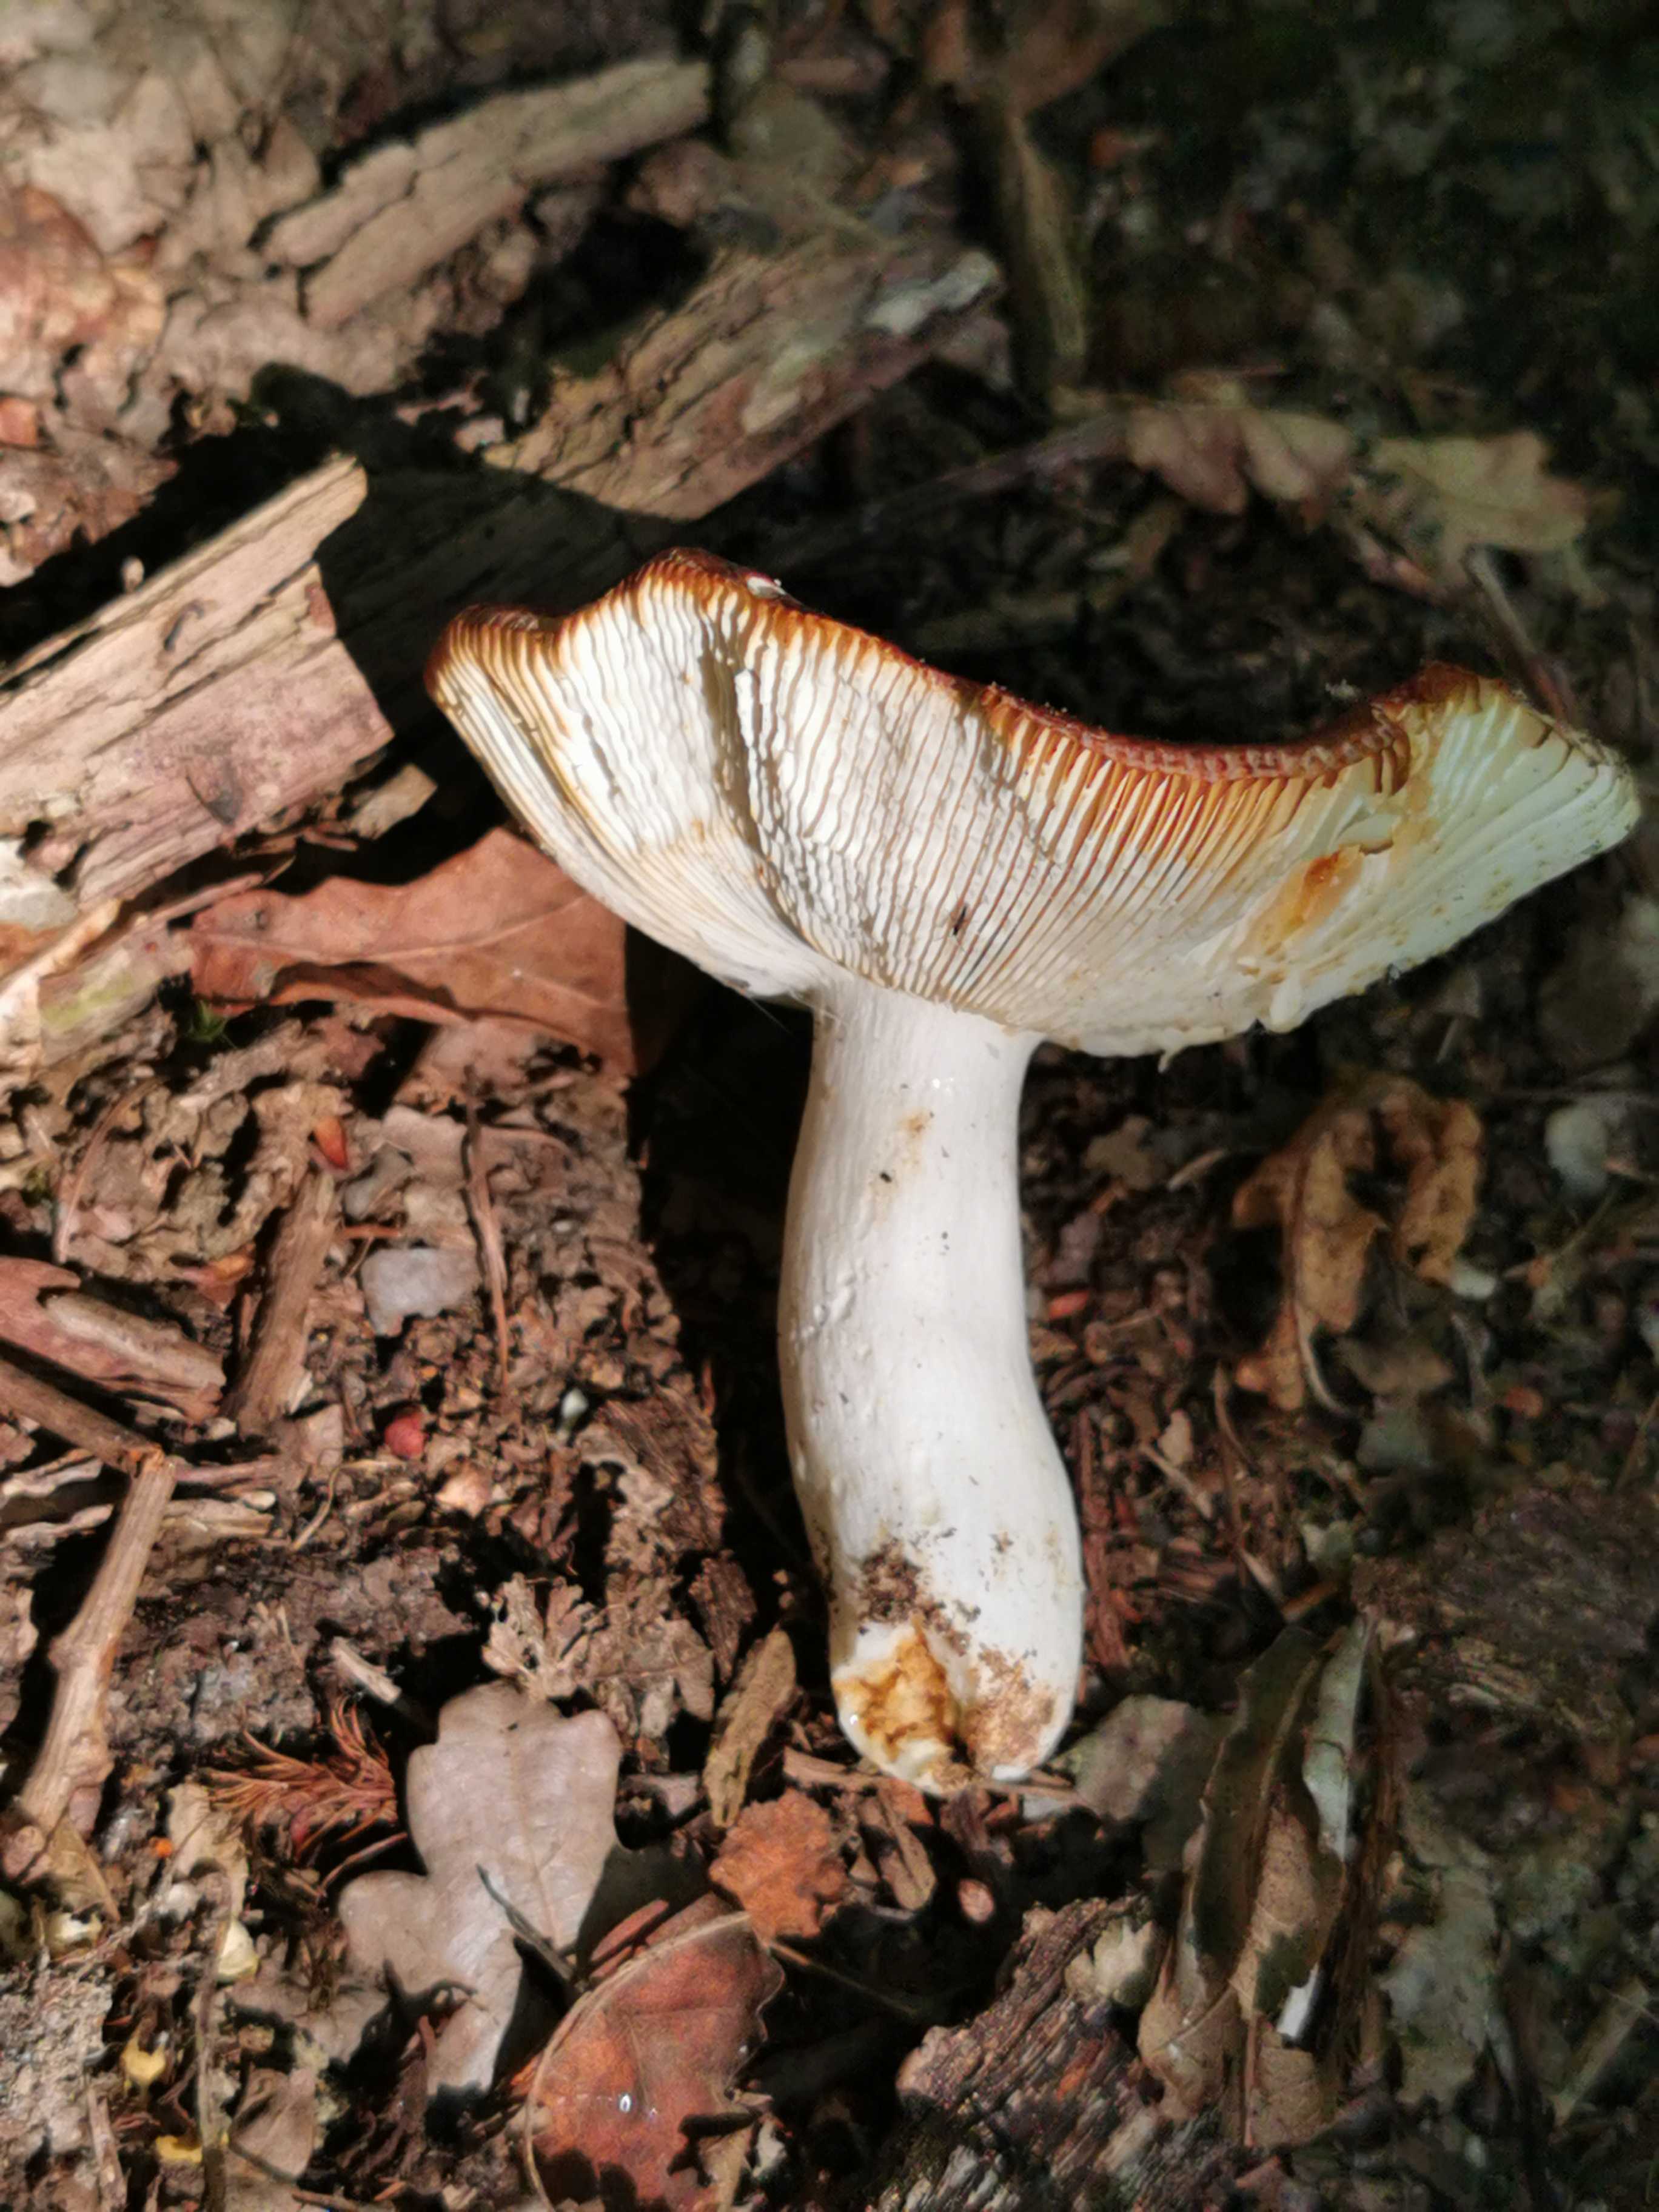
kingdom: Fungi
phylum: Basidiomycota
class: Agaricomycetes
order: Russulales
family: Russulaceae
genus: Russula
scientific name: Russula
